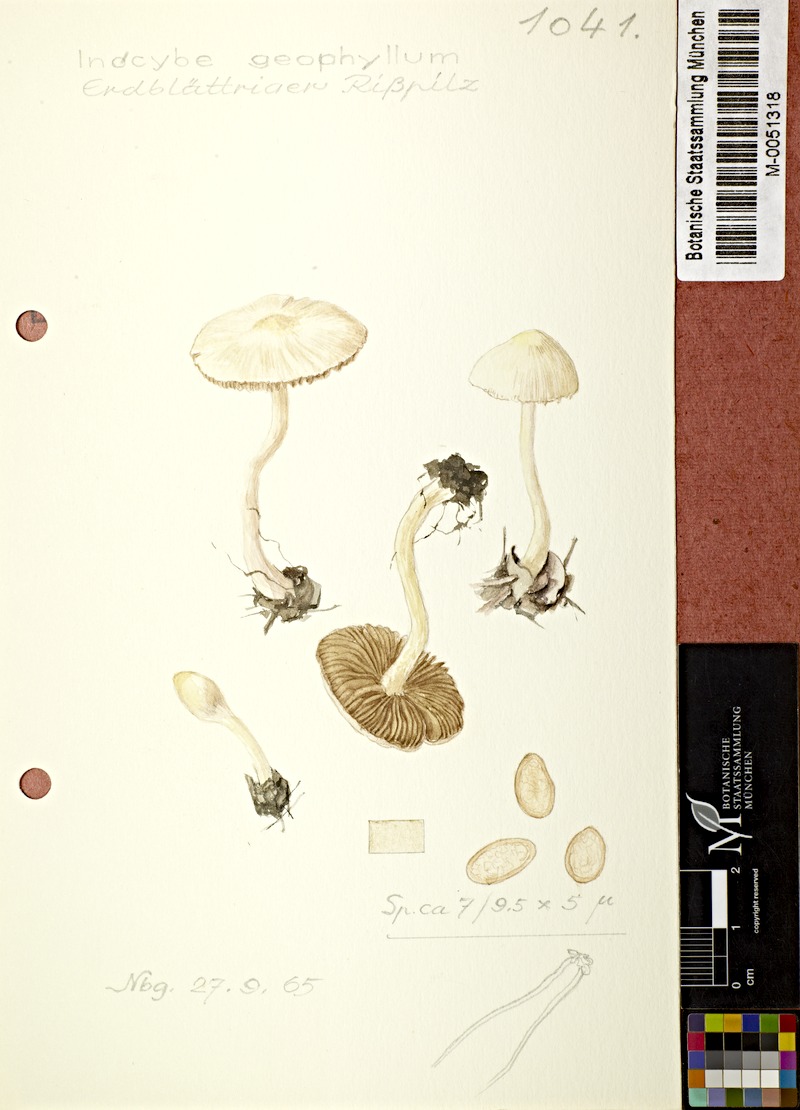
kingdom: Fungi
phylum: Basidiomycota
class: Agaricomycetes
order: Agaricales
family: Inocybaceae
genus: Inocybe
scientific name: Inocybe geophylla
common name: White fibrecap
